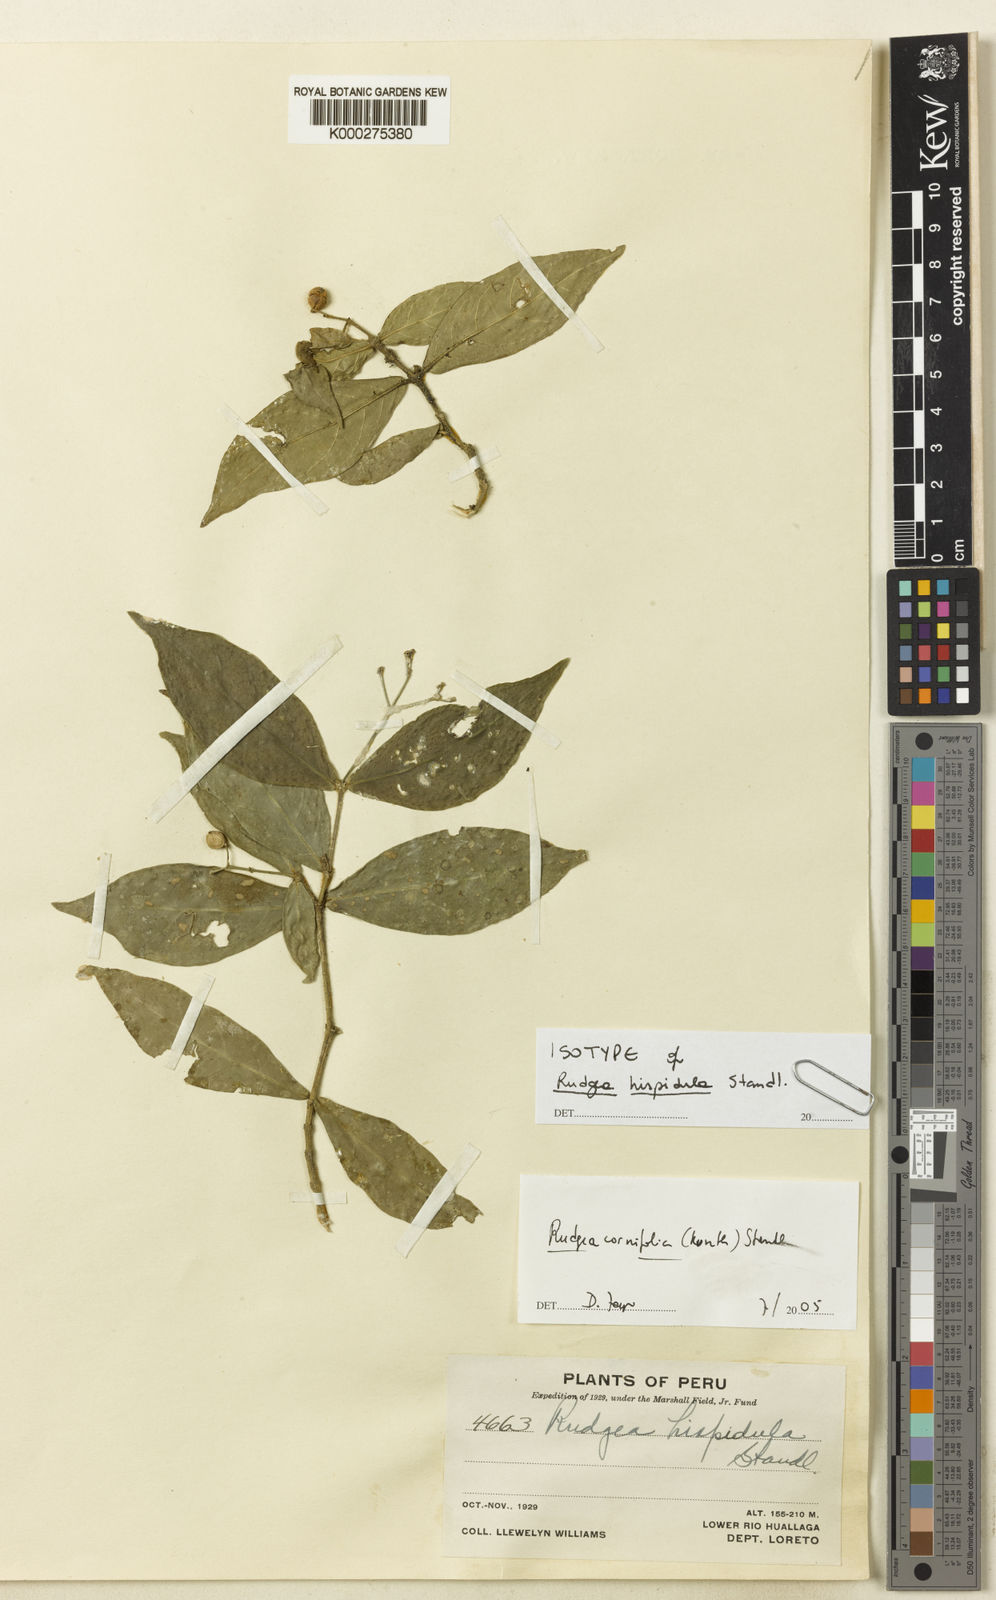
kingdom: Plantae
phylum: Tracheophyta
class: Magnoliopsida
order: Gentianales
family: Rubiaceae
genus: Rudgea
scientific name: Rudgea cornifolia
